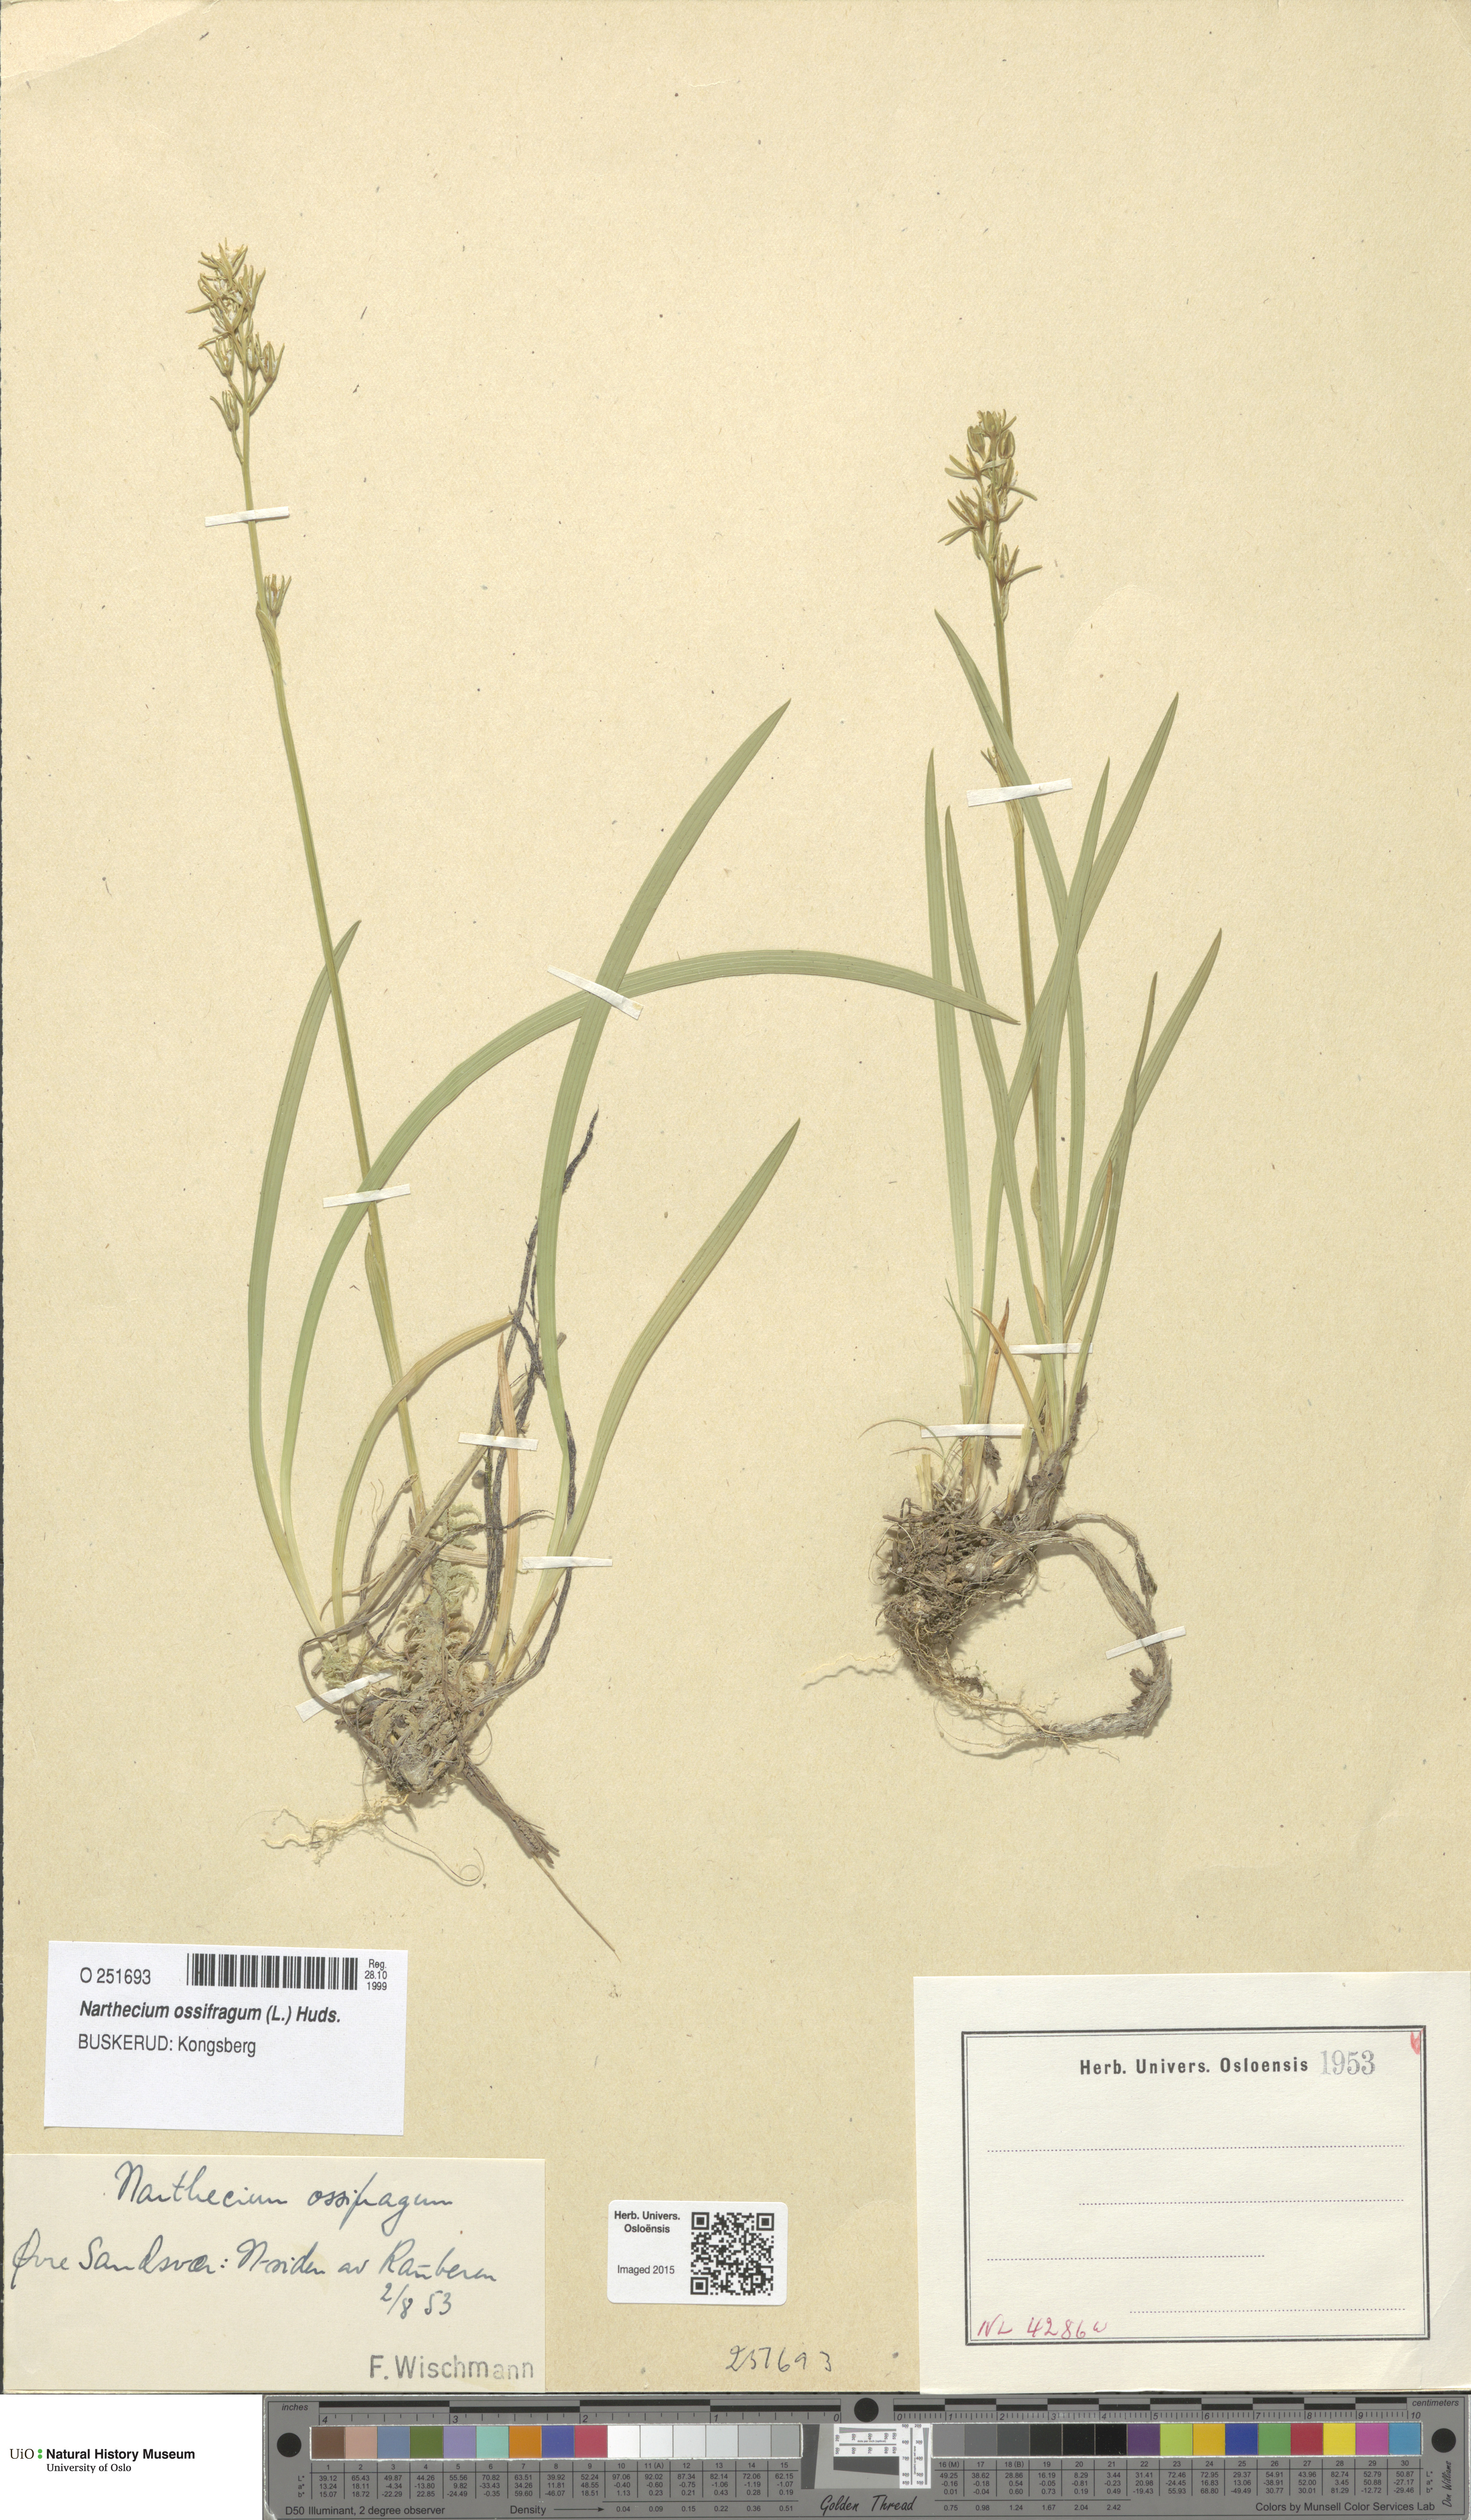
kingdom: Plantae
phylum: Tracheophyta
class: Liliopsida
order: Dioscoreales
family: Nartheciaceae
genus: Narthecium
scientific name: Narthecium ossifragum
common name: Bog asphodel
